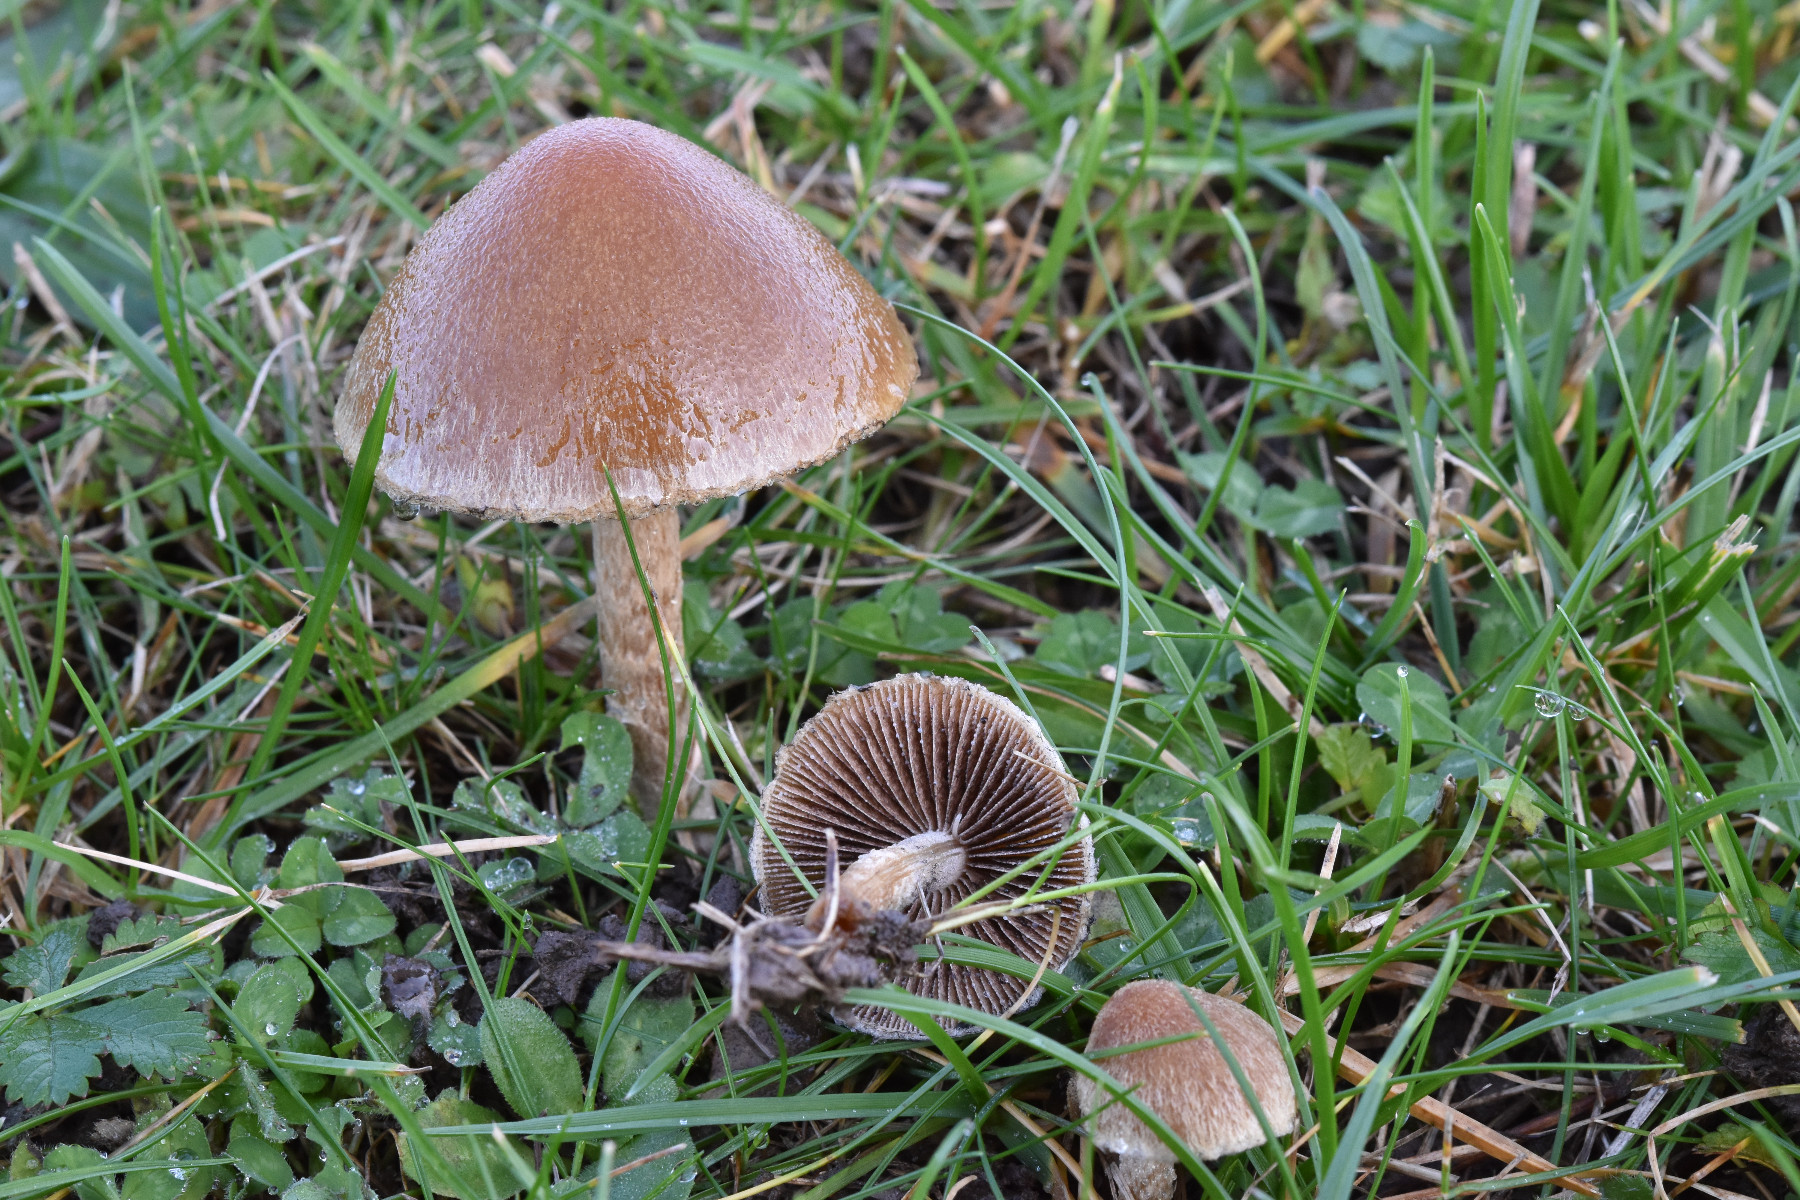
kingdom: Fungi
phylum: Basidiomycota
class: Agaricomycetes
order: Agaricales
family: Psathyrellaceae
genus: Lacrymaria
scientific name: Lacrymaria lacrymabunda
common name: grædende mørkhat
